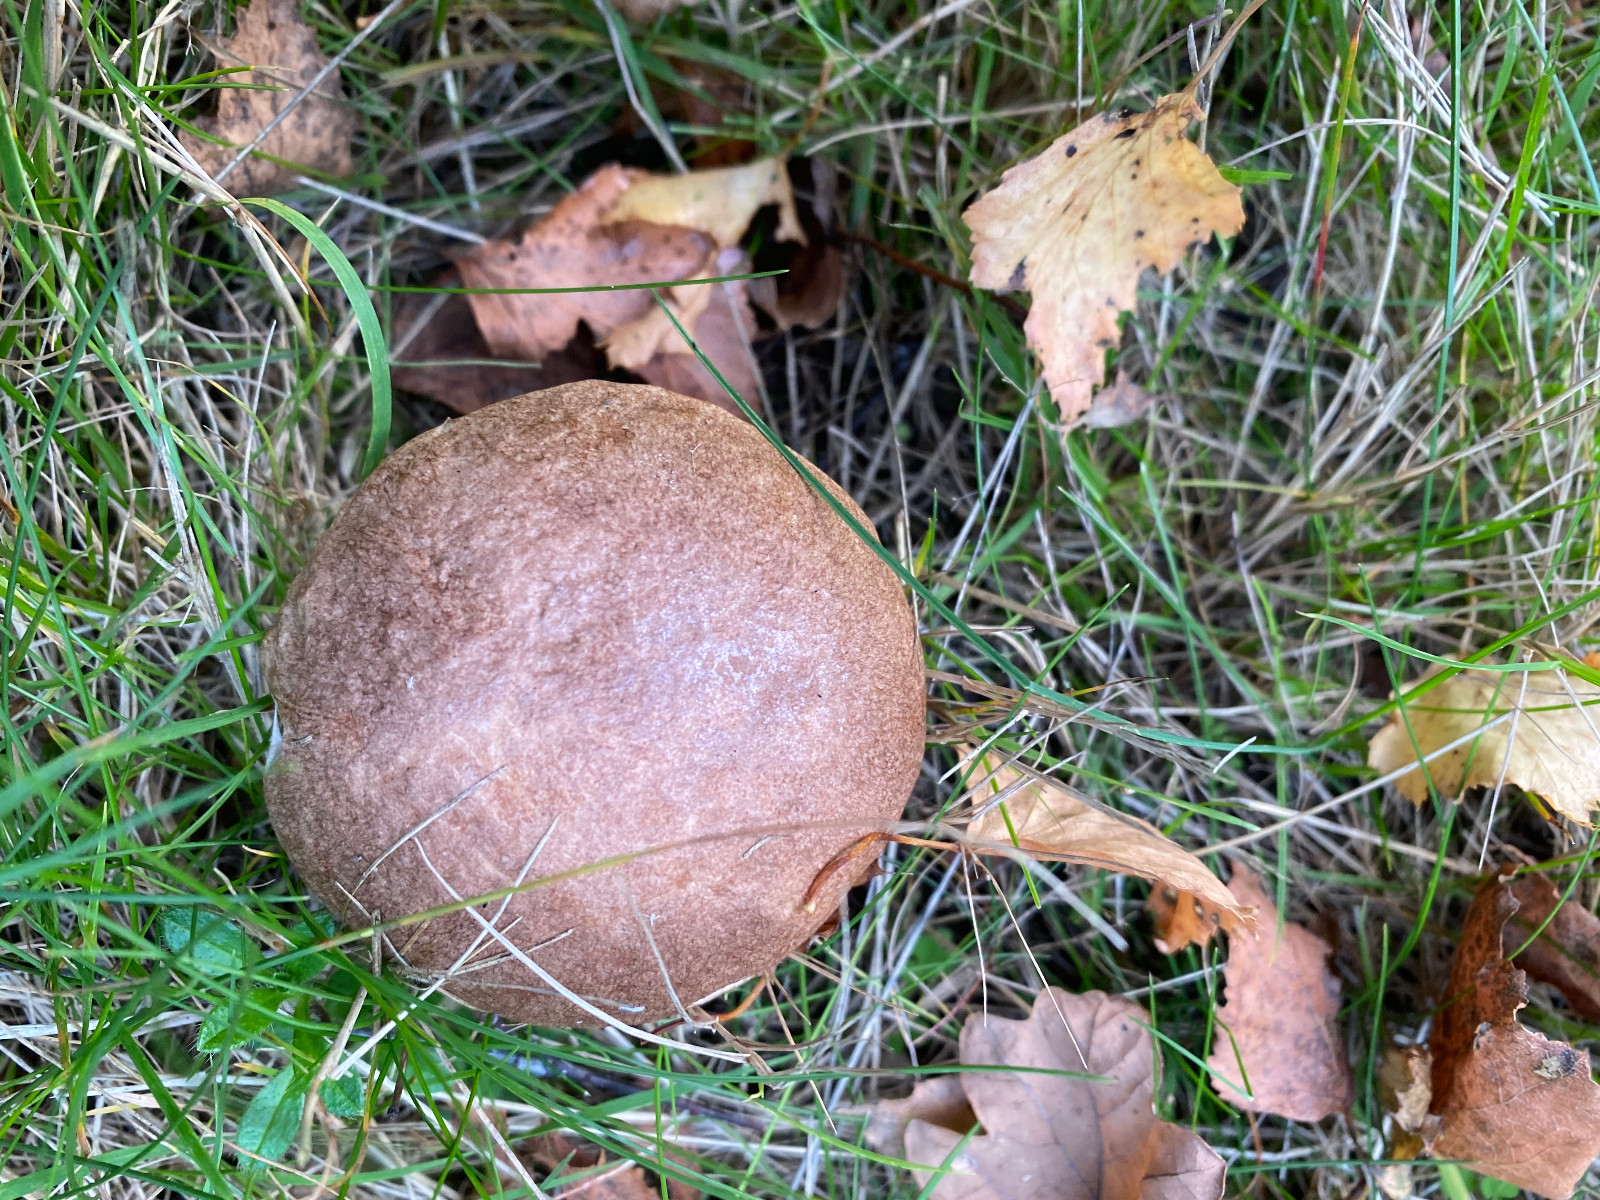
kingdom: Fungi
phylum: Basidiomycota
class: Agaricomycetes
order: Boletales
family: Boletaceae
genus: Leccinum
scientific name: Leccinum
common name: skælrørhat
